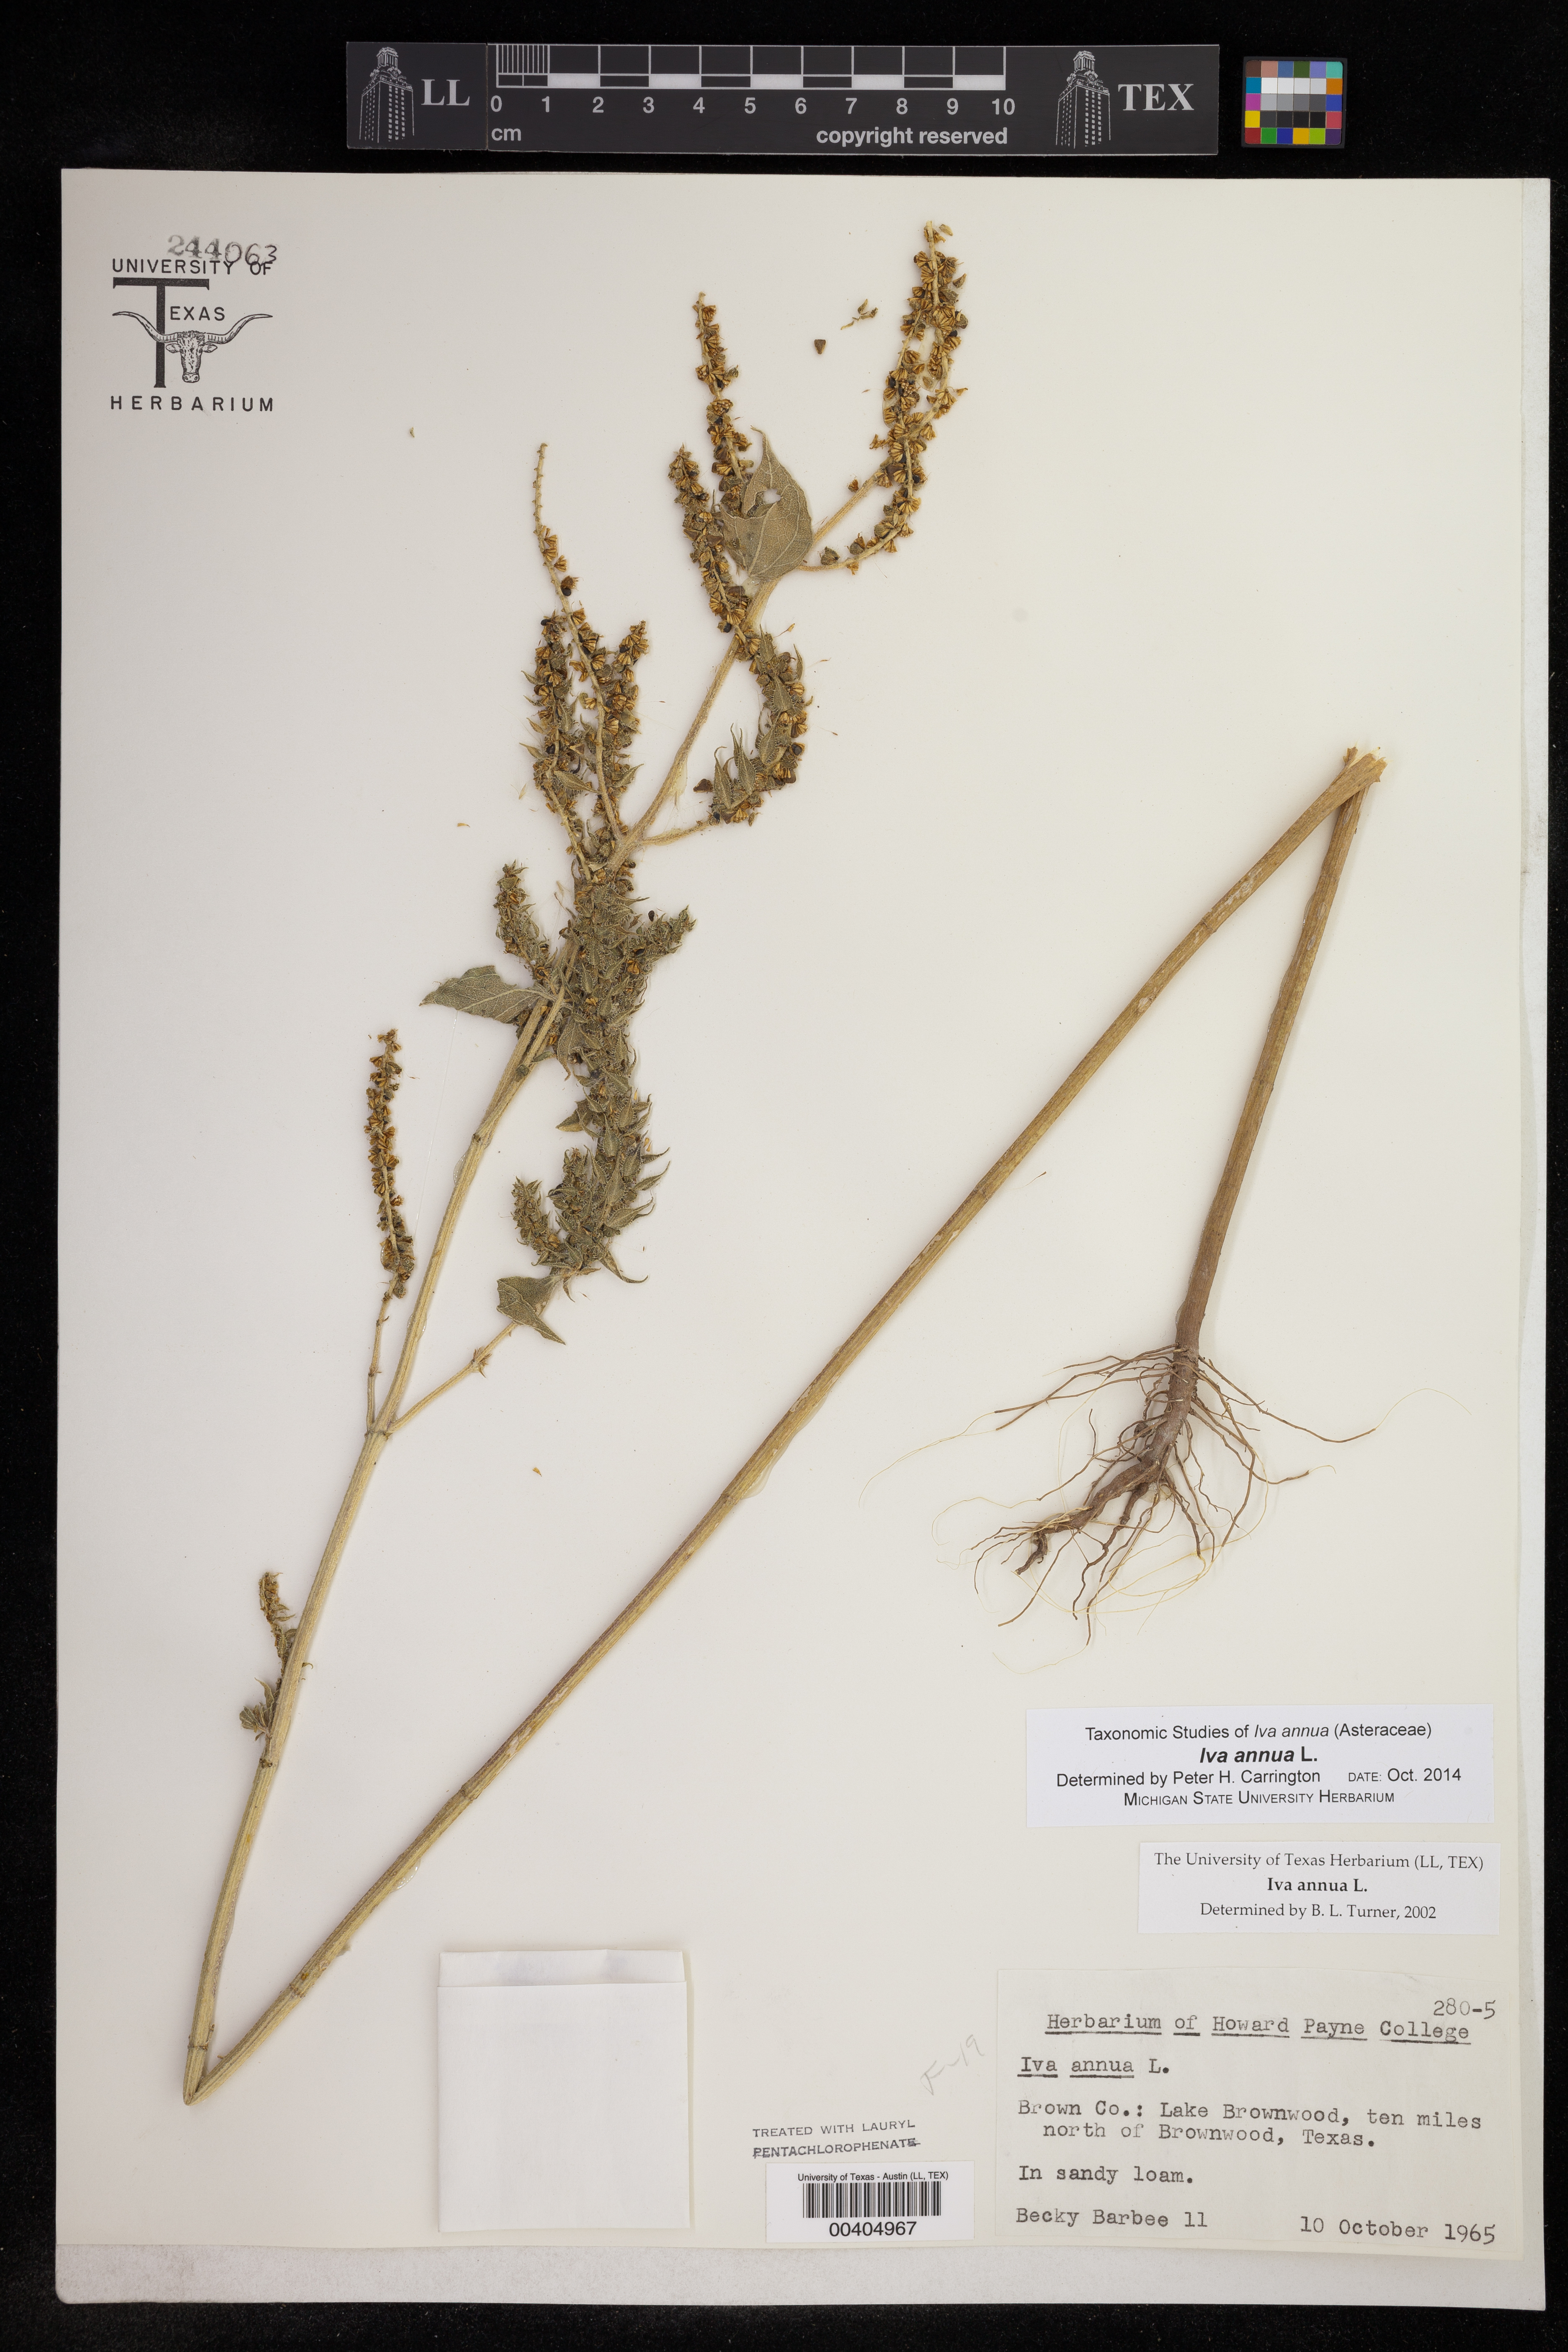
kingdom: Plantae
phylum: Tracheophyta
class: Magnoliopsida
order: Asterales
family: Asteraceae
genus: Iva
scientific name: Iva annua
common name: Marsh-elder
